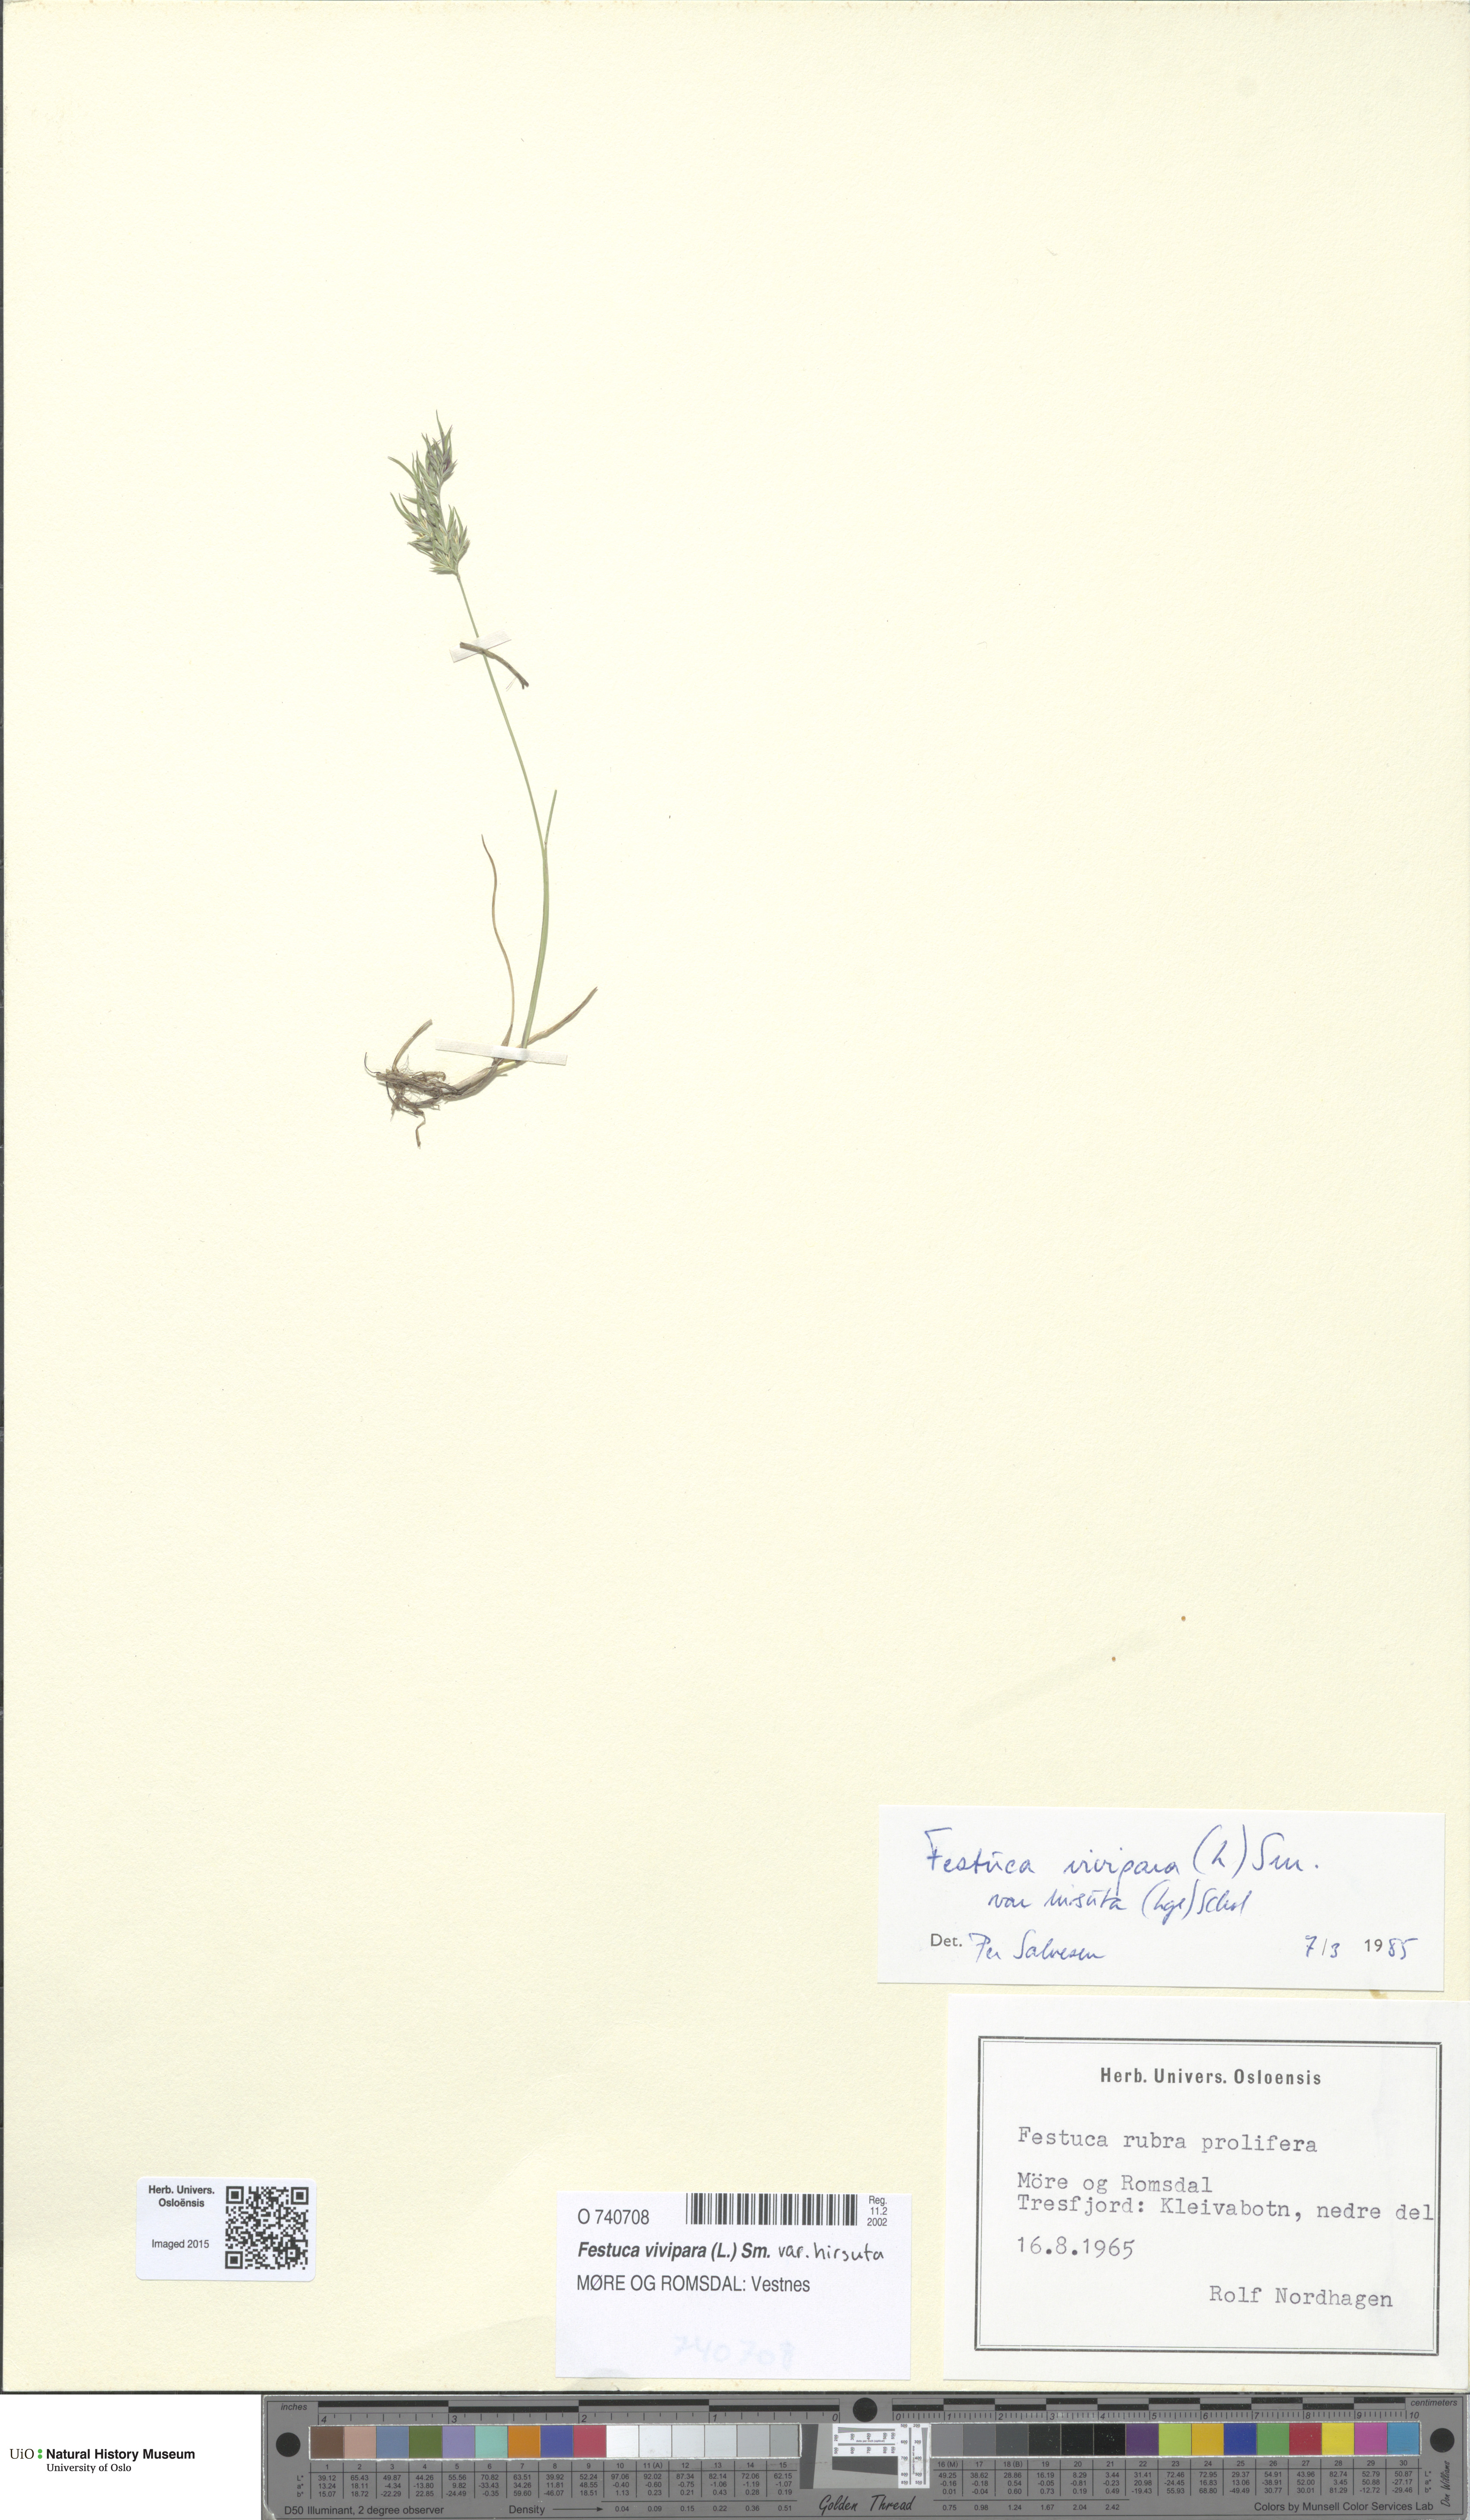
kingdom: Plantae
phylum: Tracheophyta
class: Liliopsida
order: Poales
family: Poaceae
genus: Festuca
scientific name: Festuca vivipara
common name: Viviparous sheep's-fescue
